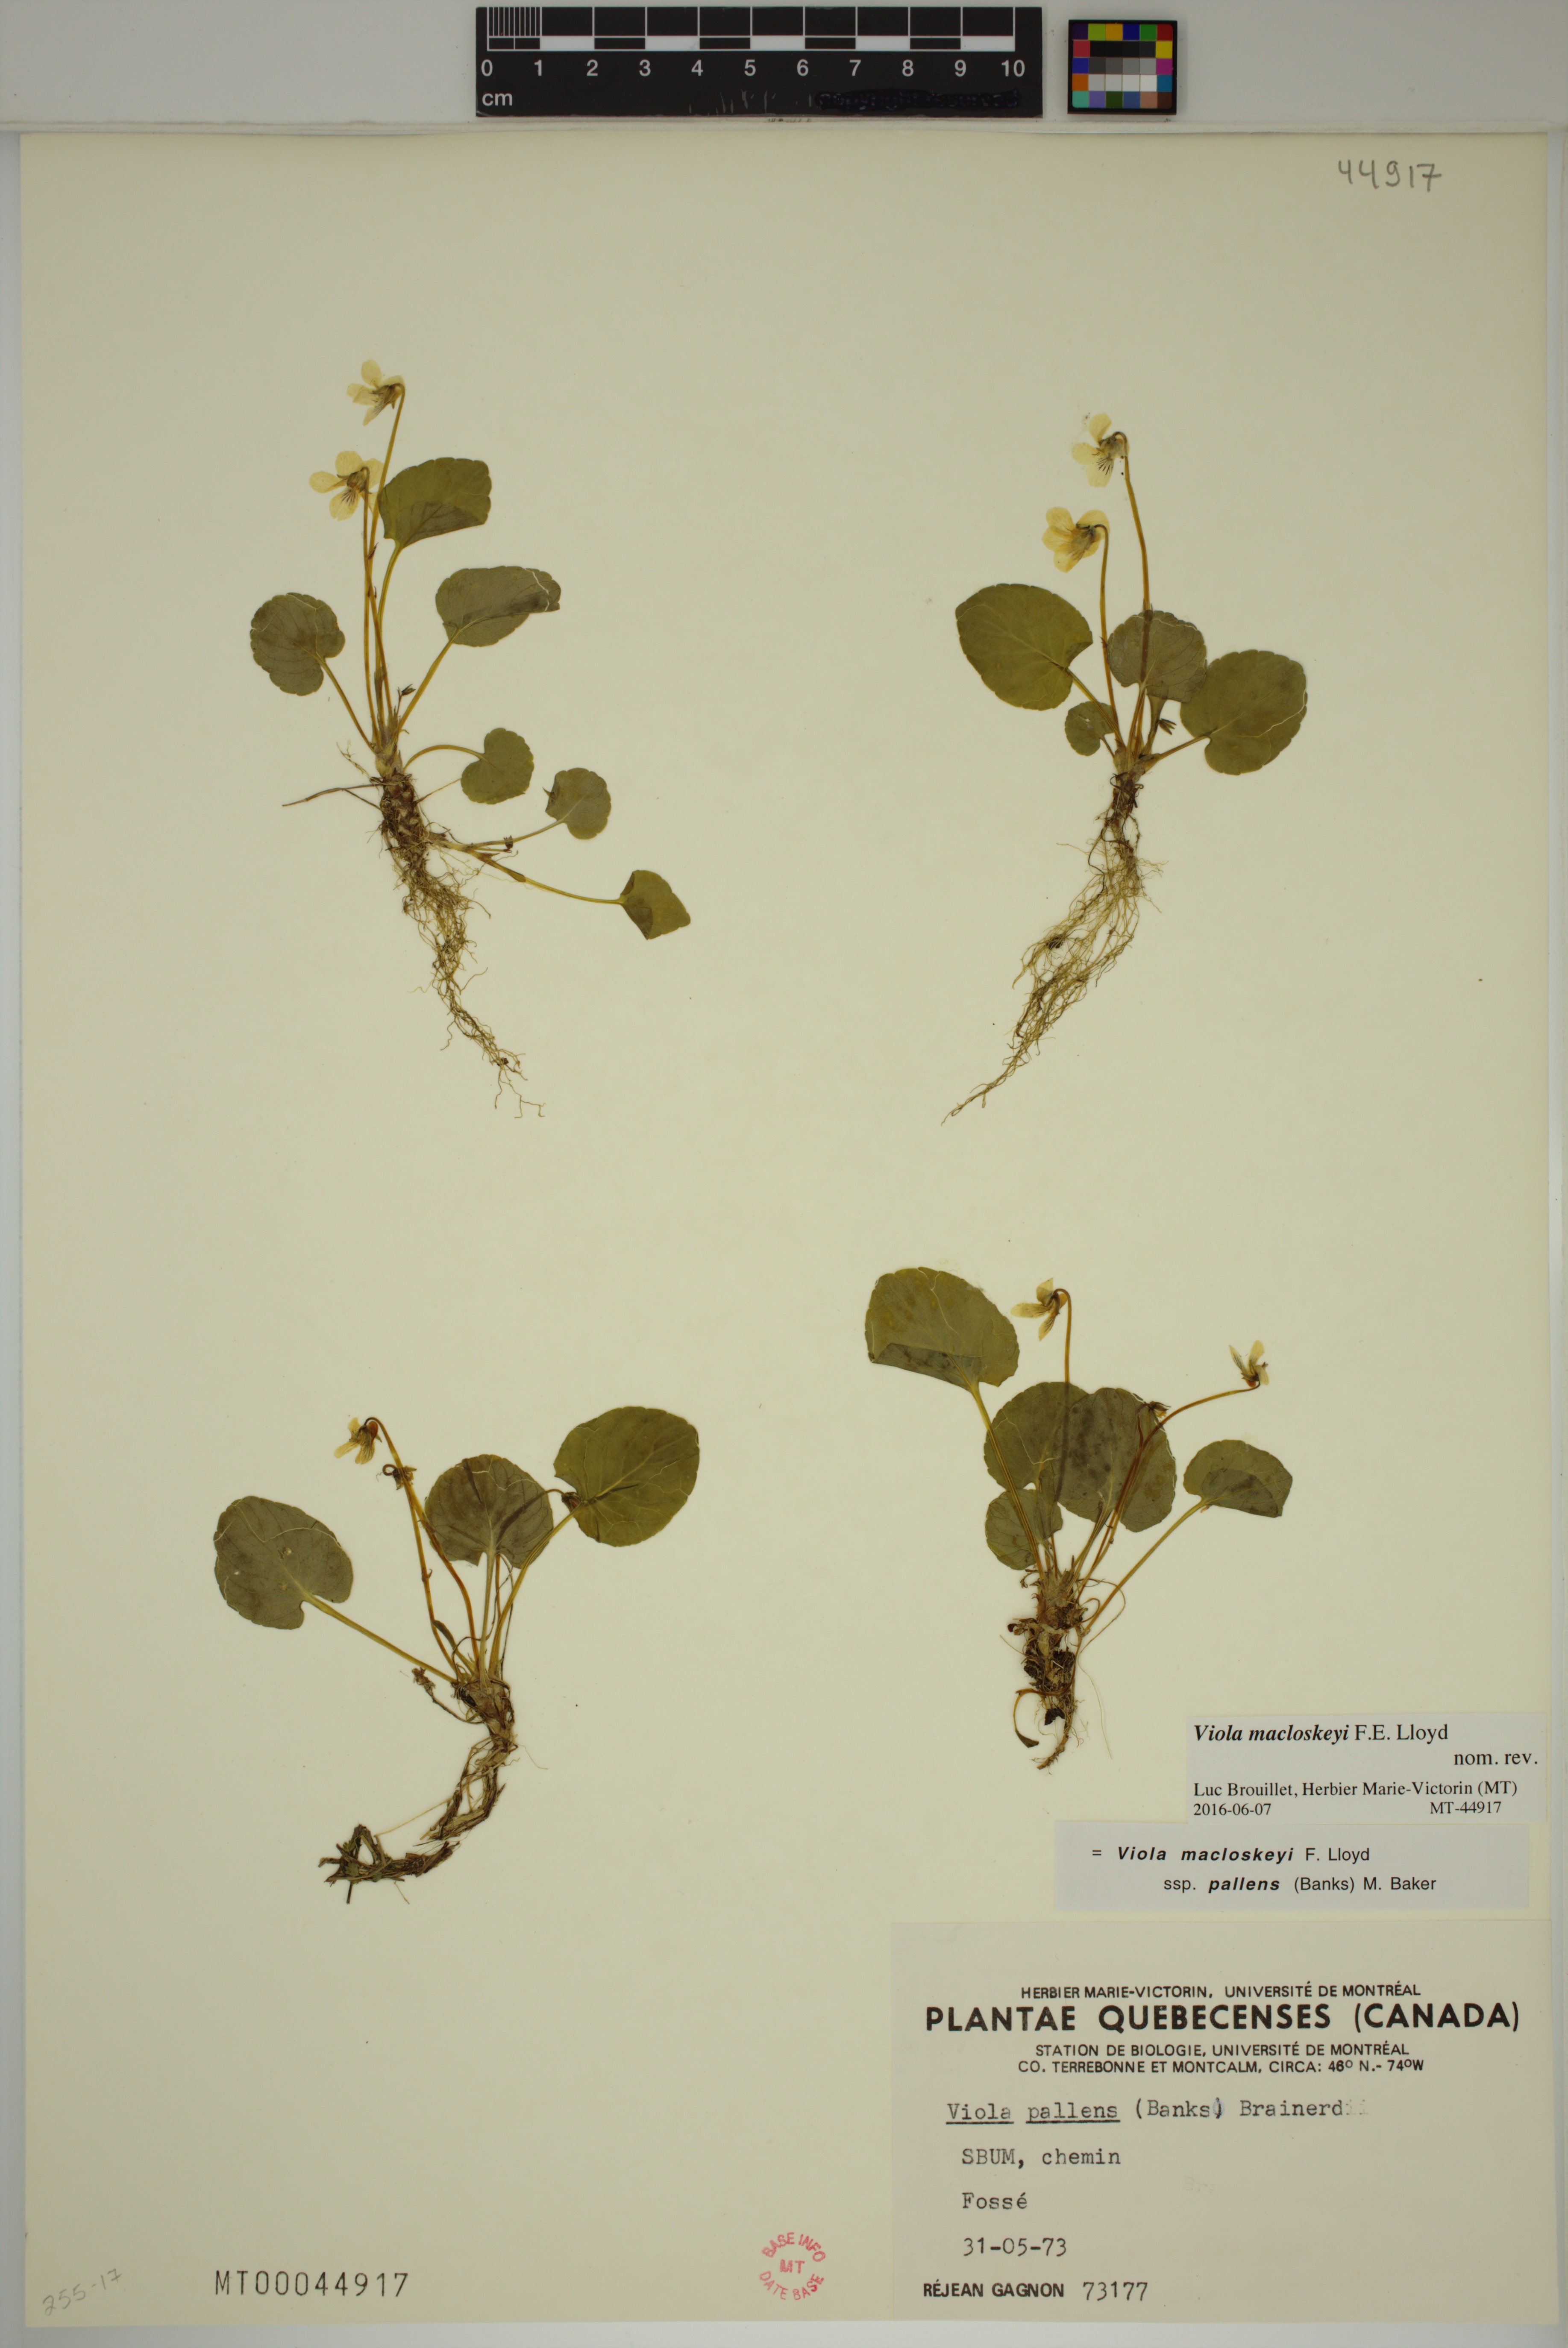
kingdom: Plantae
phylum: Tracheophyta
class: Magnoliopsida
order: Malpighiales
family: Violaceae
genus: Viola
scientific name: Viola macloskeyi
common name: Macloskey's violet
